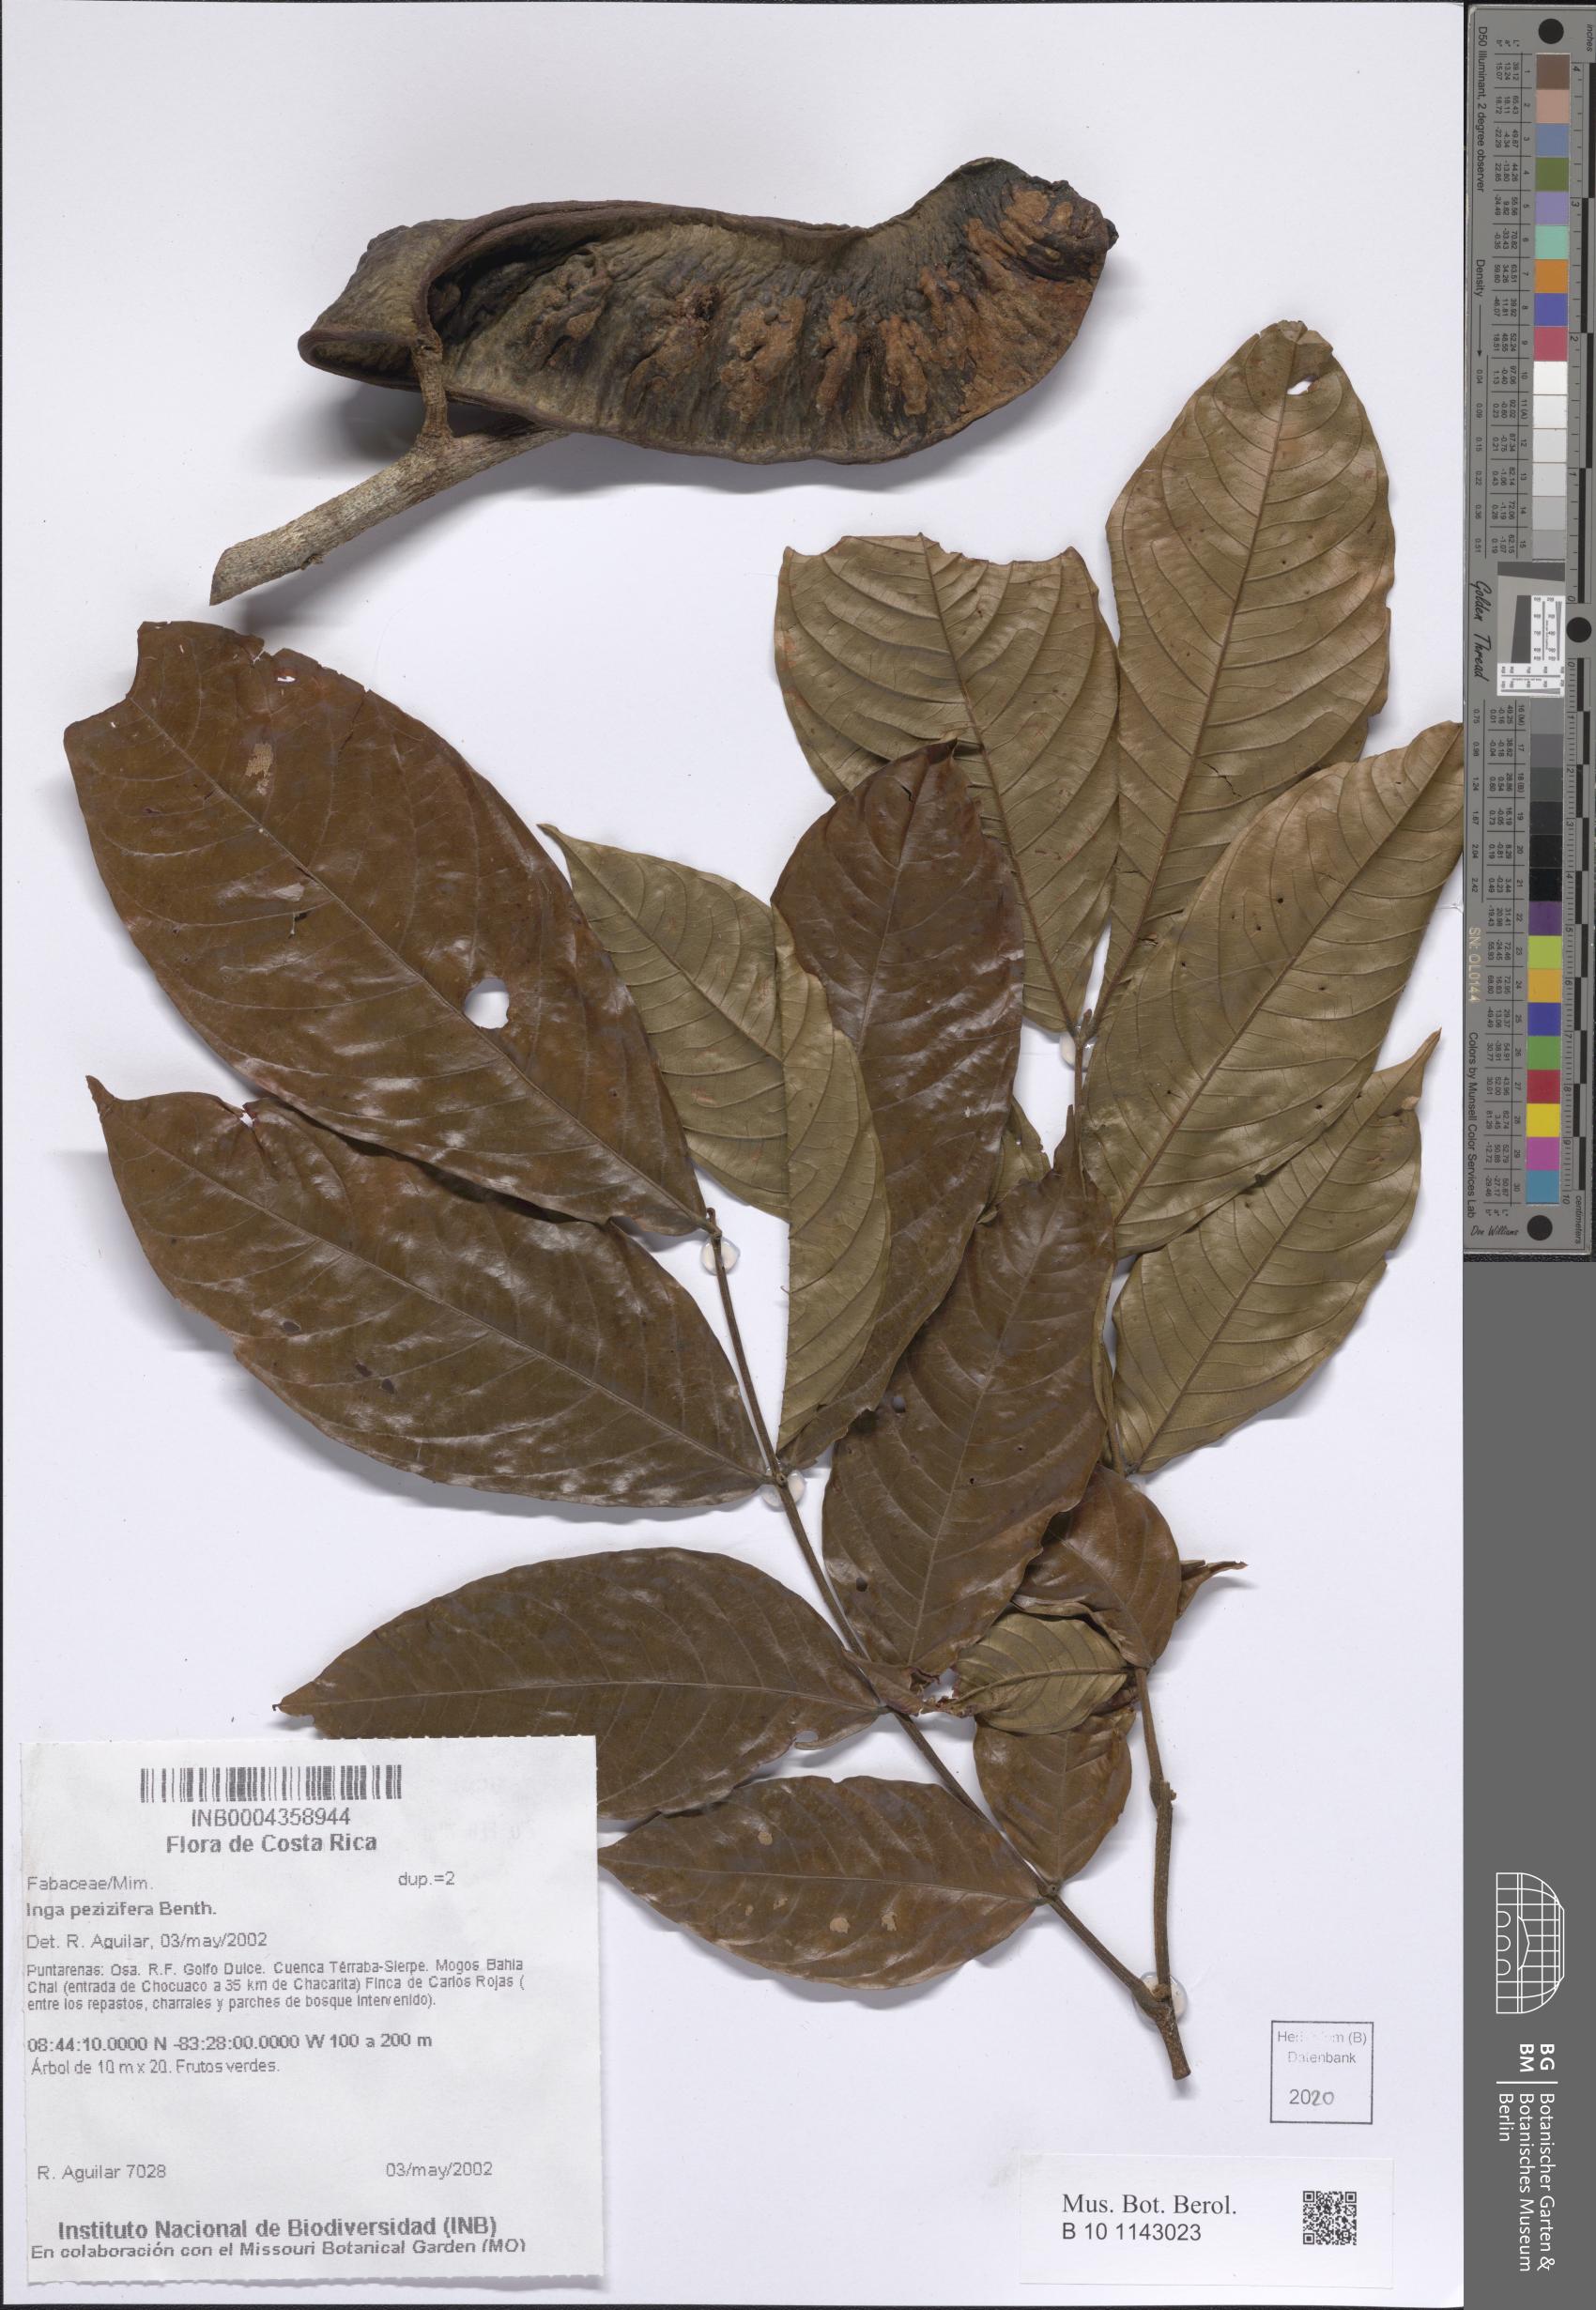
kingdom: Plantae
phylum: Tracheophyta
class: Magnoliopsida
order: Fabales
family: Fabaceae
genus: Inga
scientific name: Inga pezizifera
